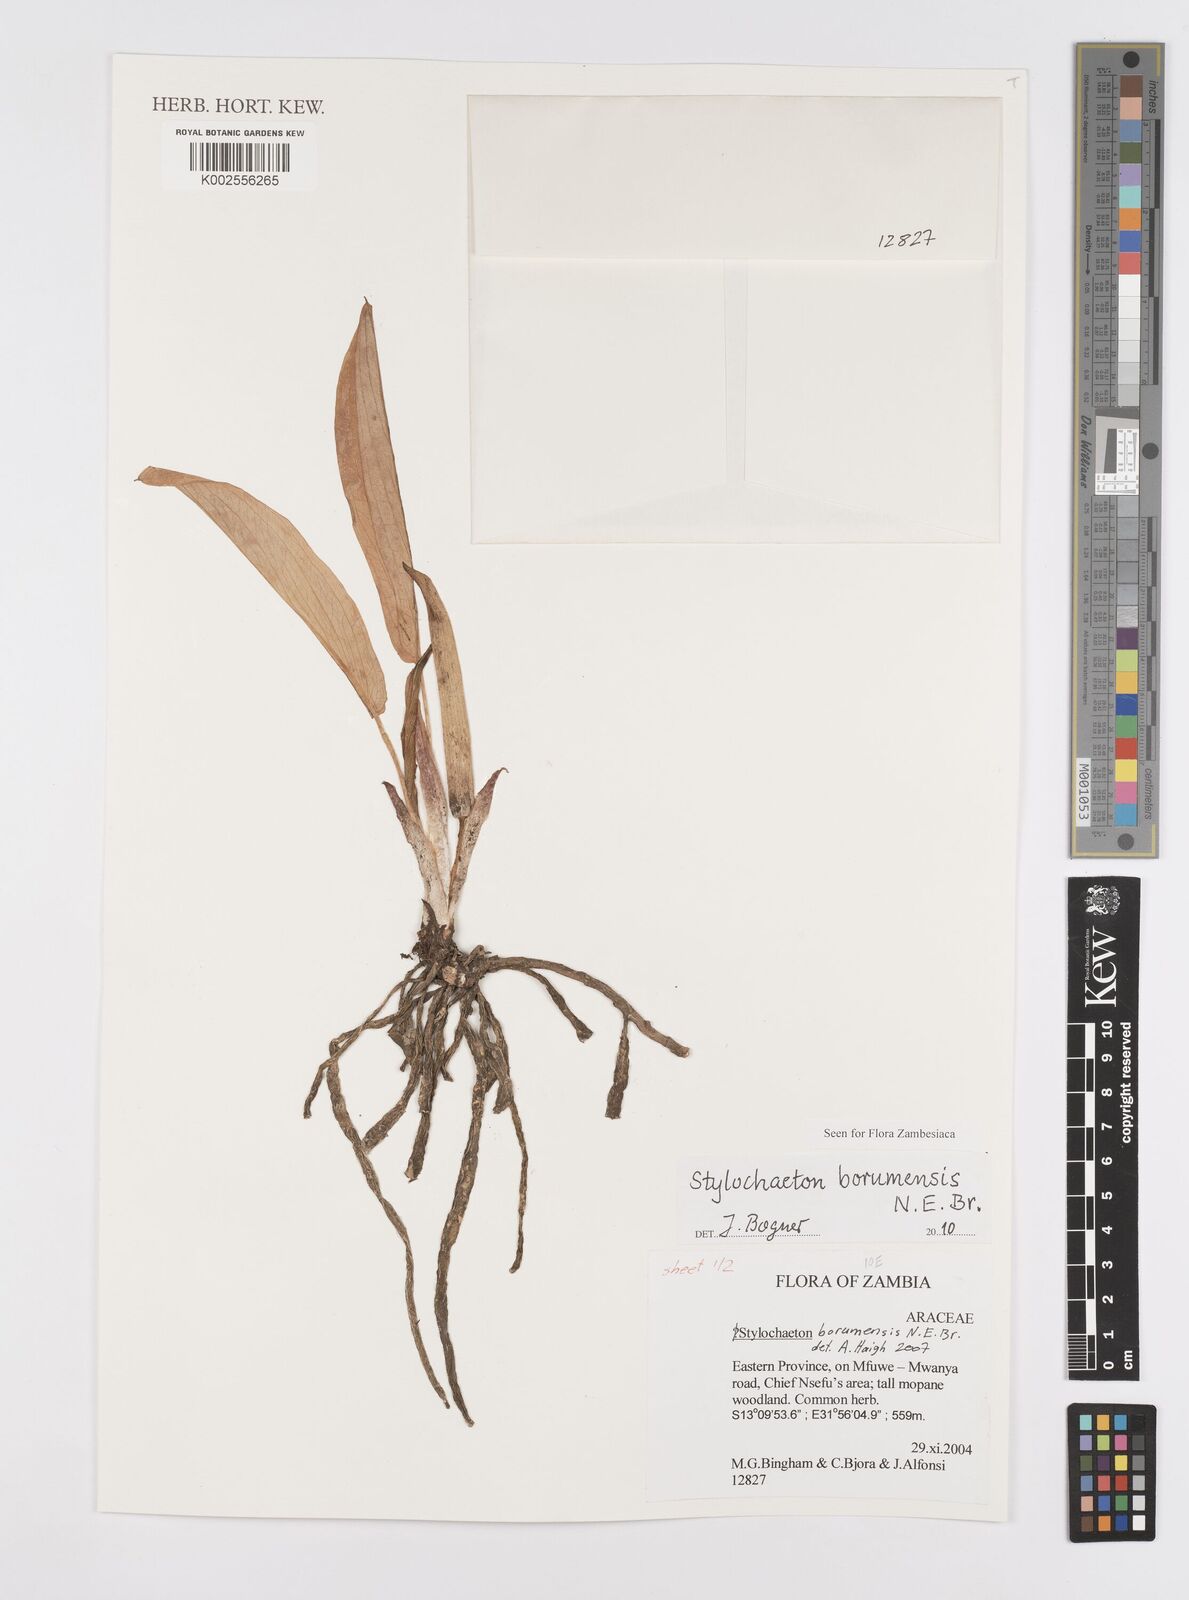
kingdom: Plantae
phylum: Tracheophyta
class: Liliopsida
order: Alismatales
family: Araceae
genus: Stylochaeton
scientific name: Stylochaeton borumense
